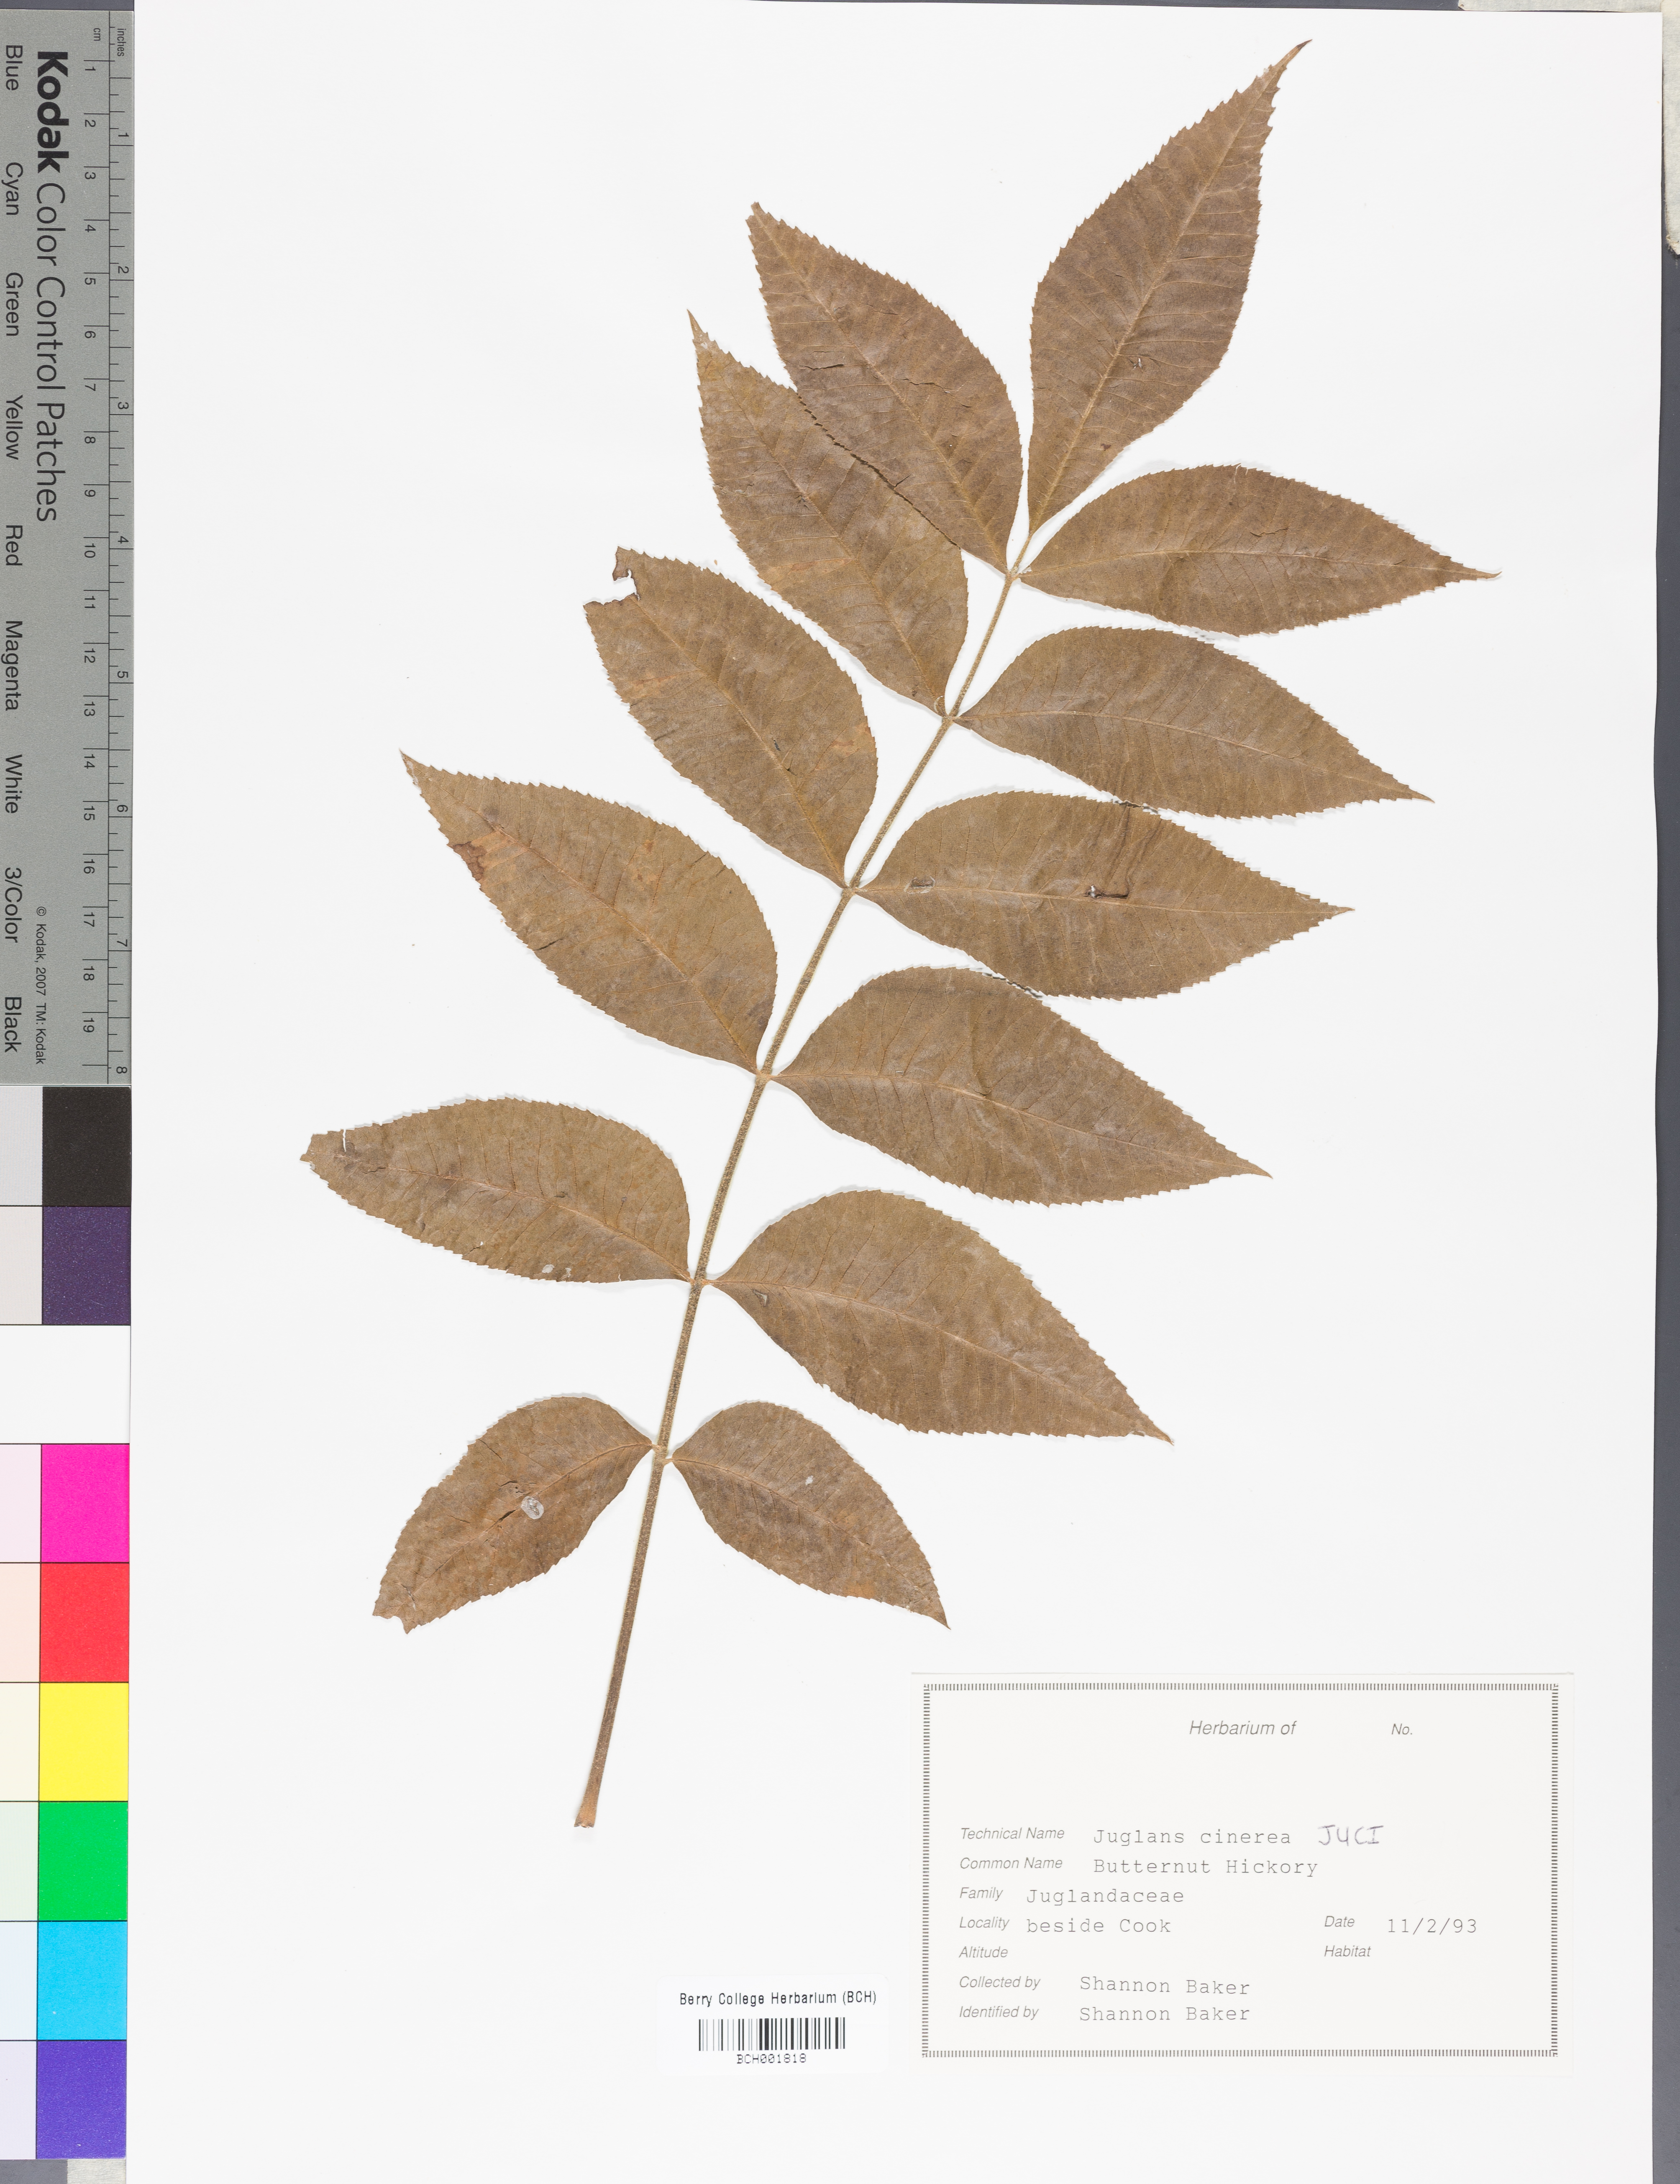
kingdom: Plantae
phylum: Tracheophyta
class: Magnoliopsida
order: Fagales
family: Juglandaceae
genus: Juglans
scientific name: Juglans cinerea
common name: Butternut
